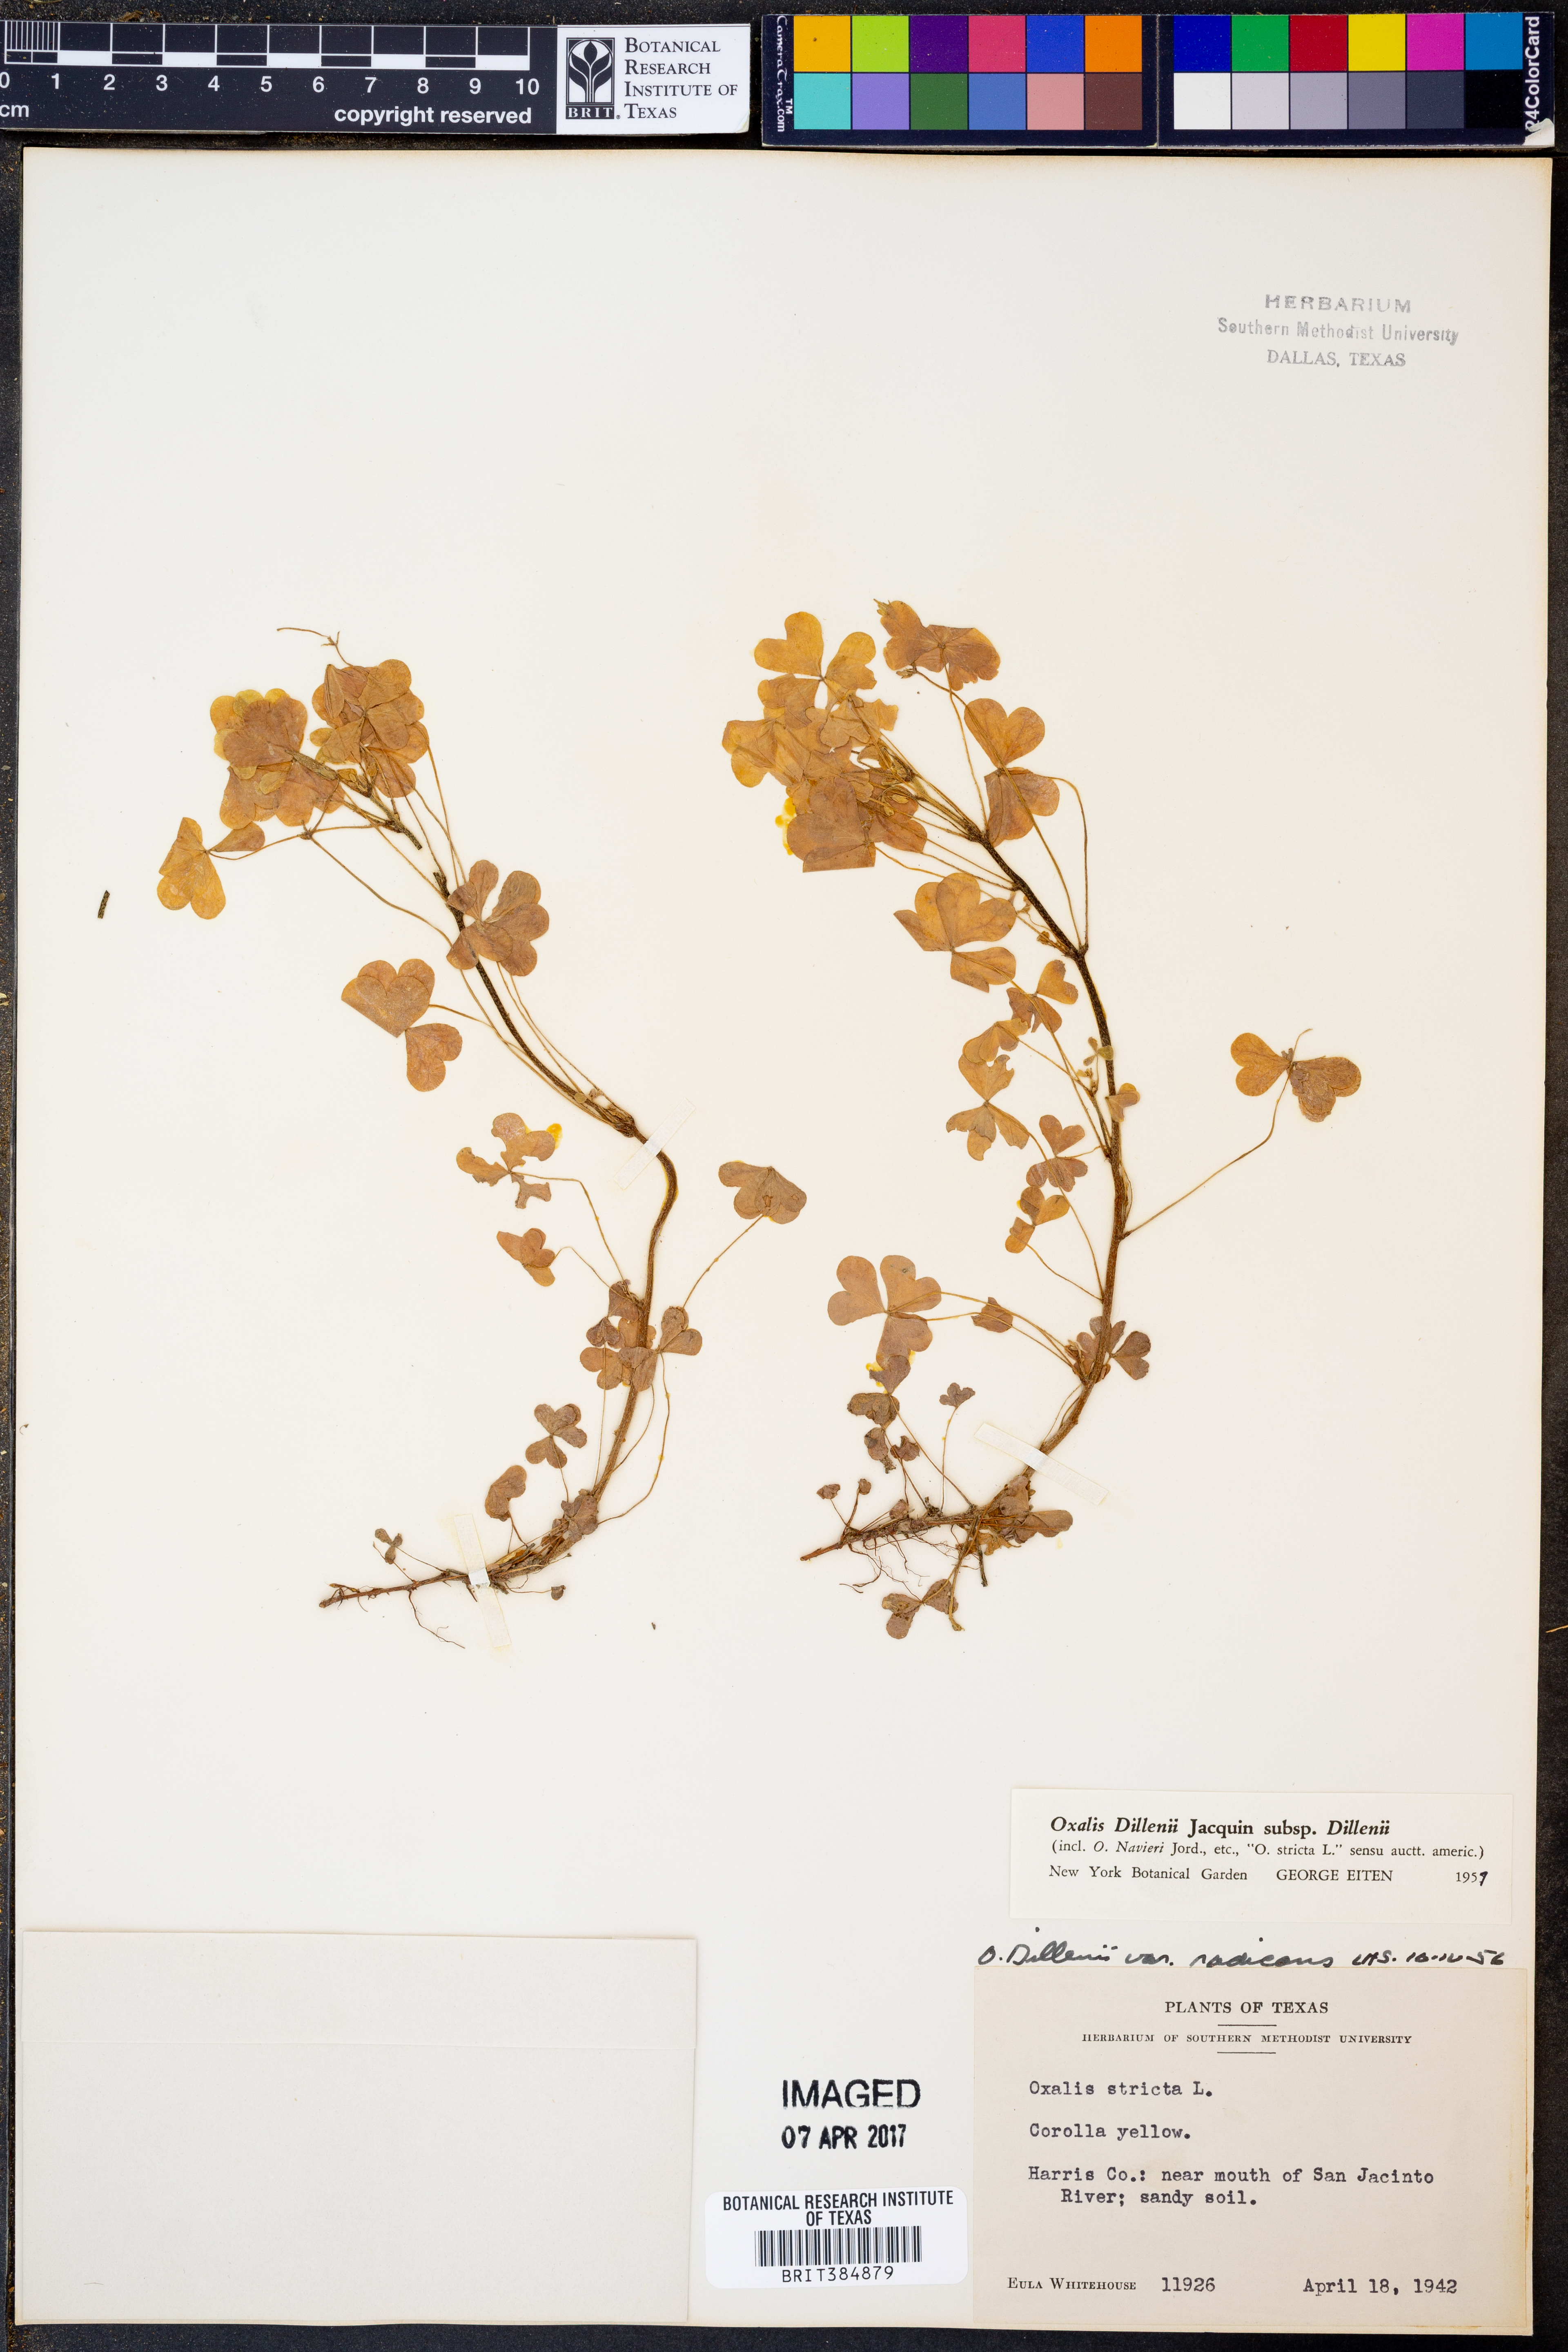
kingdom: Plantae
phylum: Tracheophyta
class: Magnoliopsida
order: Oxalidales
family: Oxalidaceae
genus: Oxalis
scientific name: Oxalis dillenii
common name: Sussex yellow-sorrel
